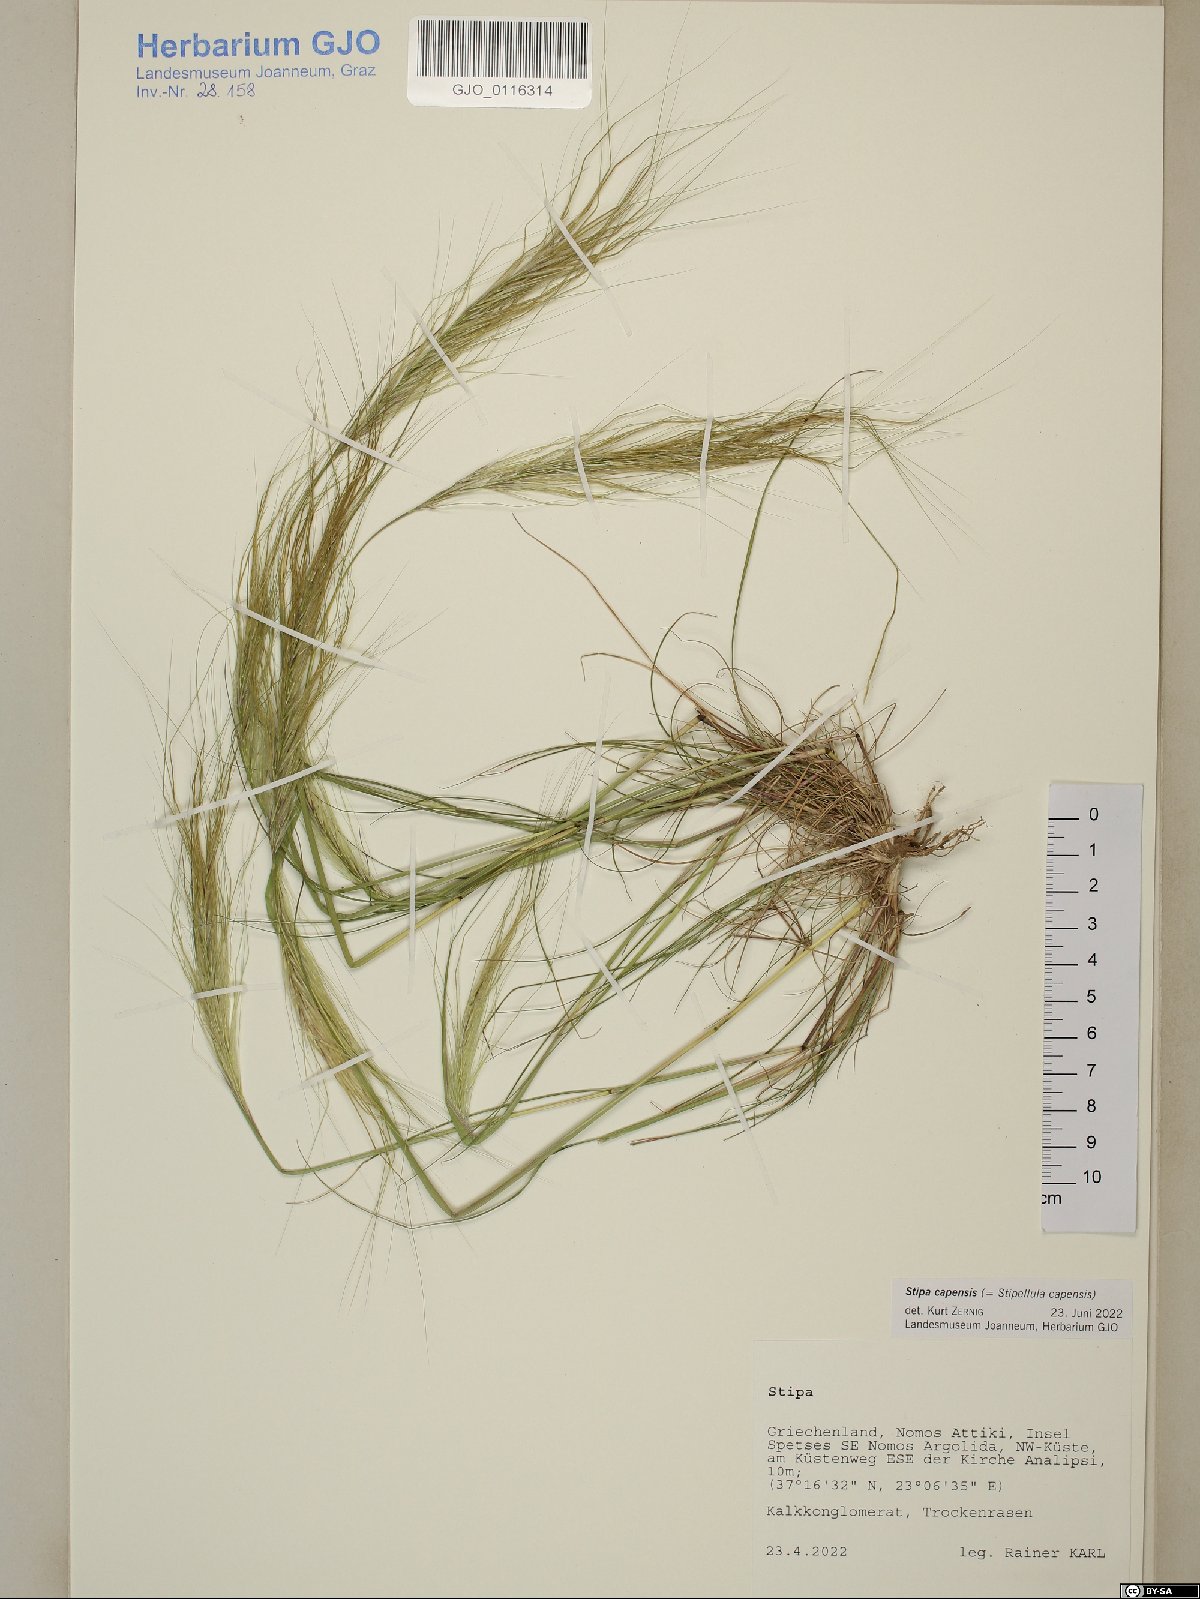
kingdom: Plantae
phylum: Tracheophyta
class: Liliopsida
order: Poales
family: Poaceae
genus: Stipellula
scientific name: Stipellula capensis
